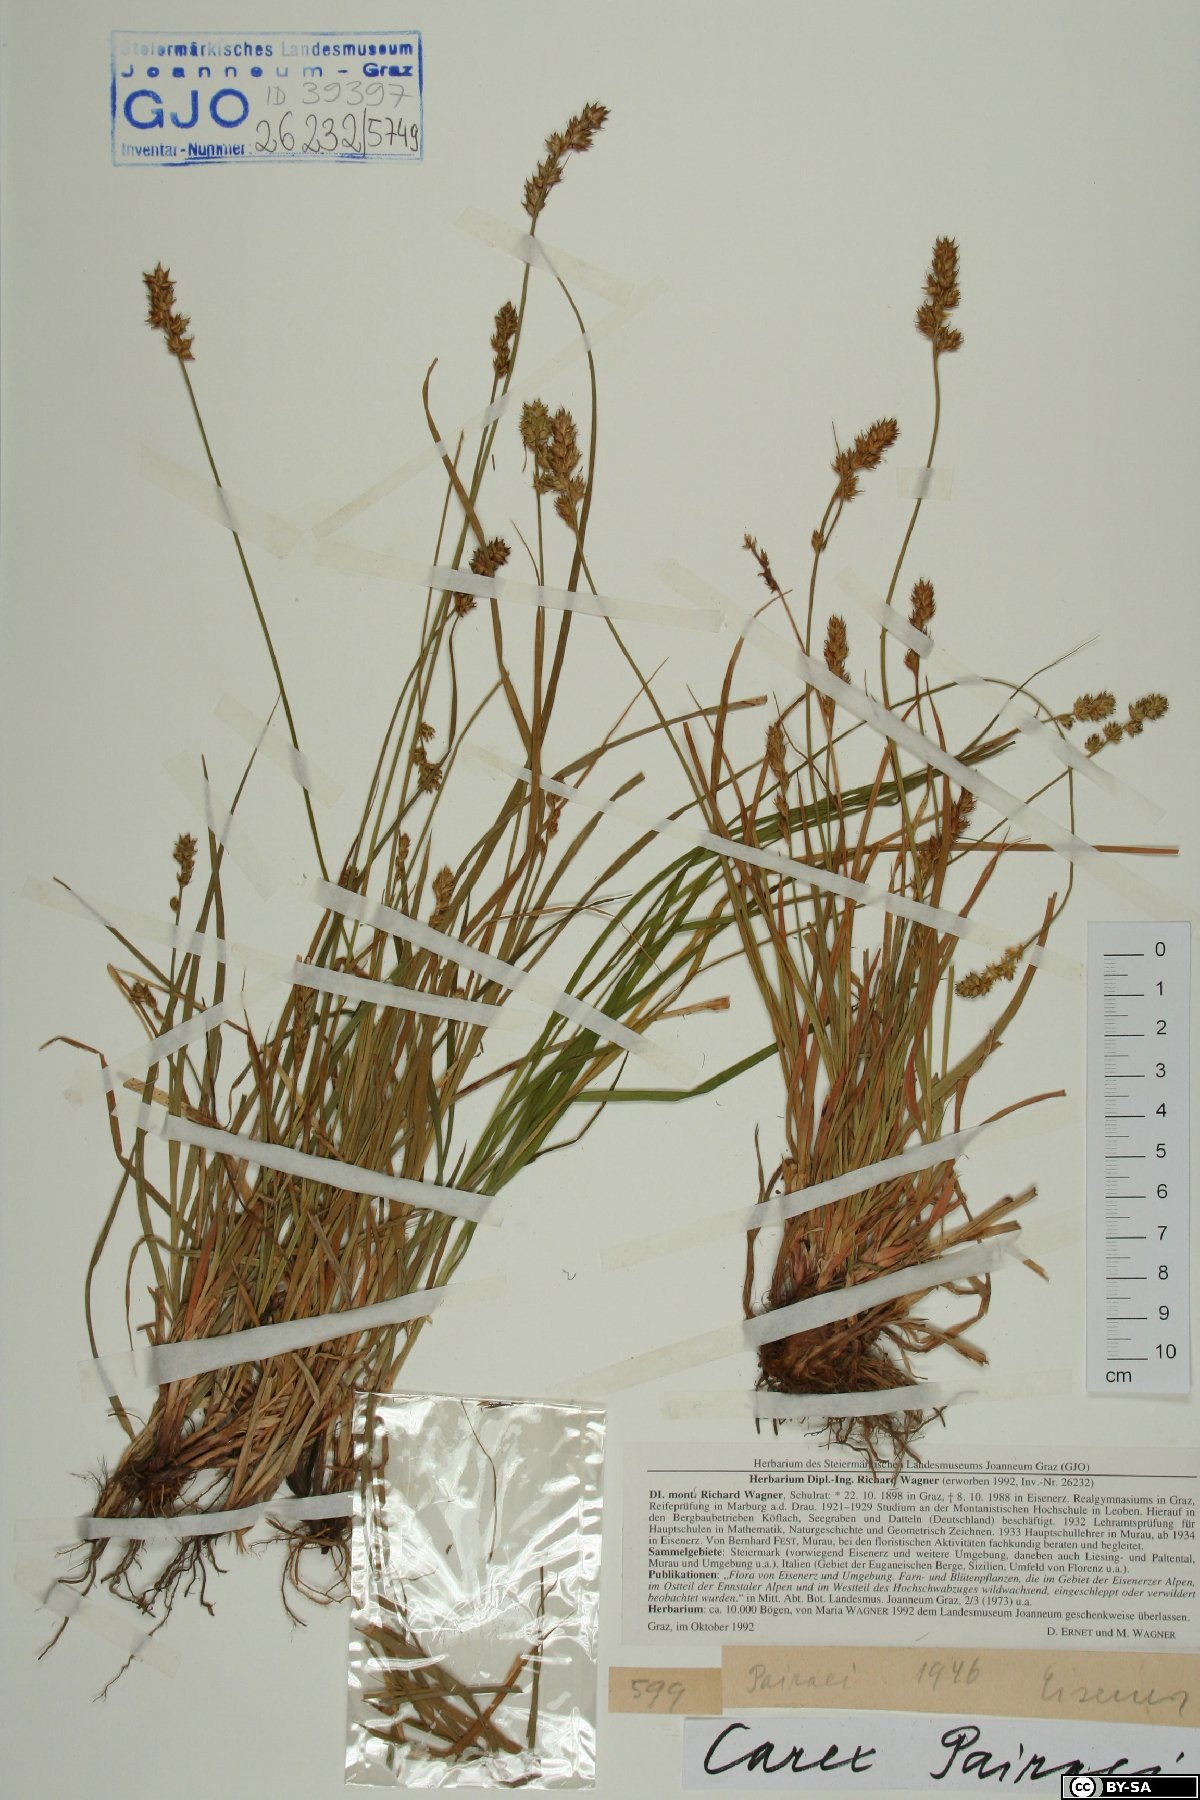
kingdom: Plantae
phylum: Tracheophyta
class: Liliopsida
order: Poales
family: Cyperaceae
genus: Carex
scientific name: Carex pairae
